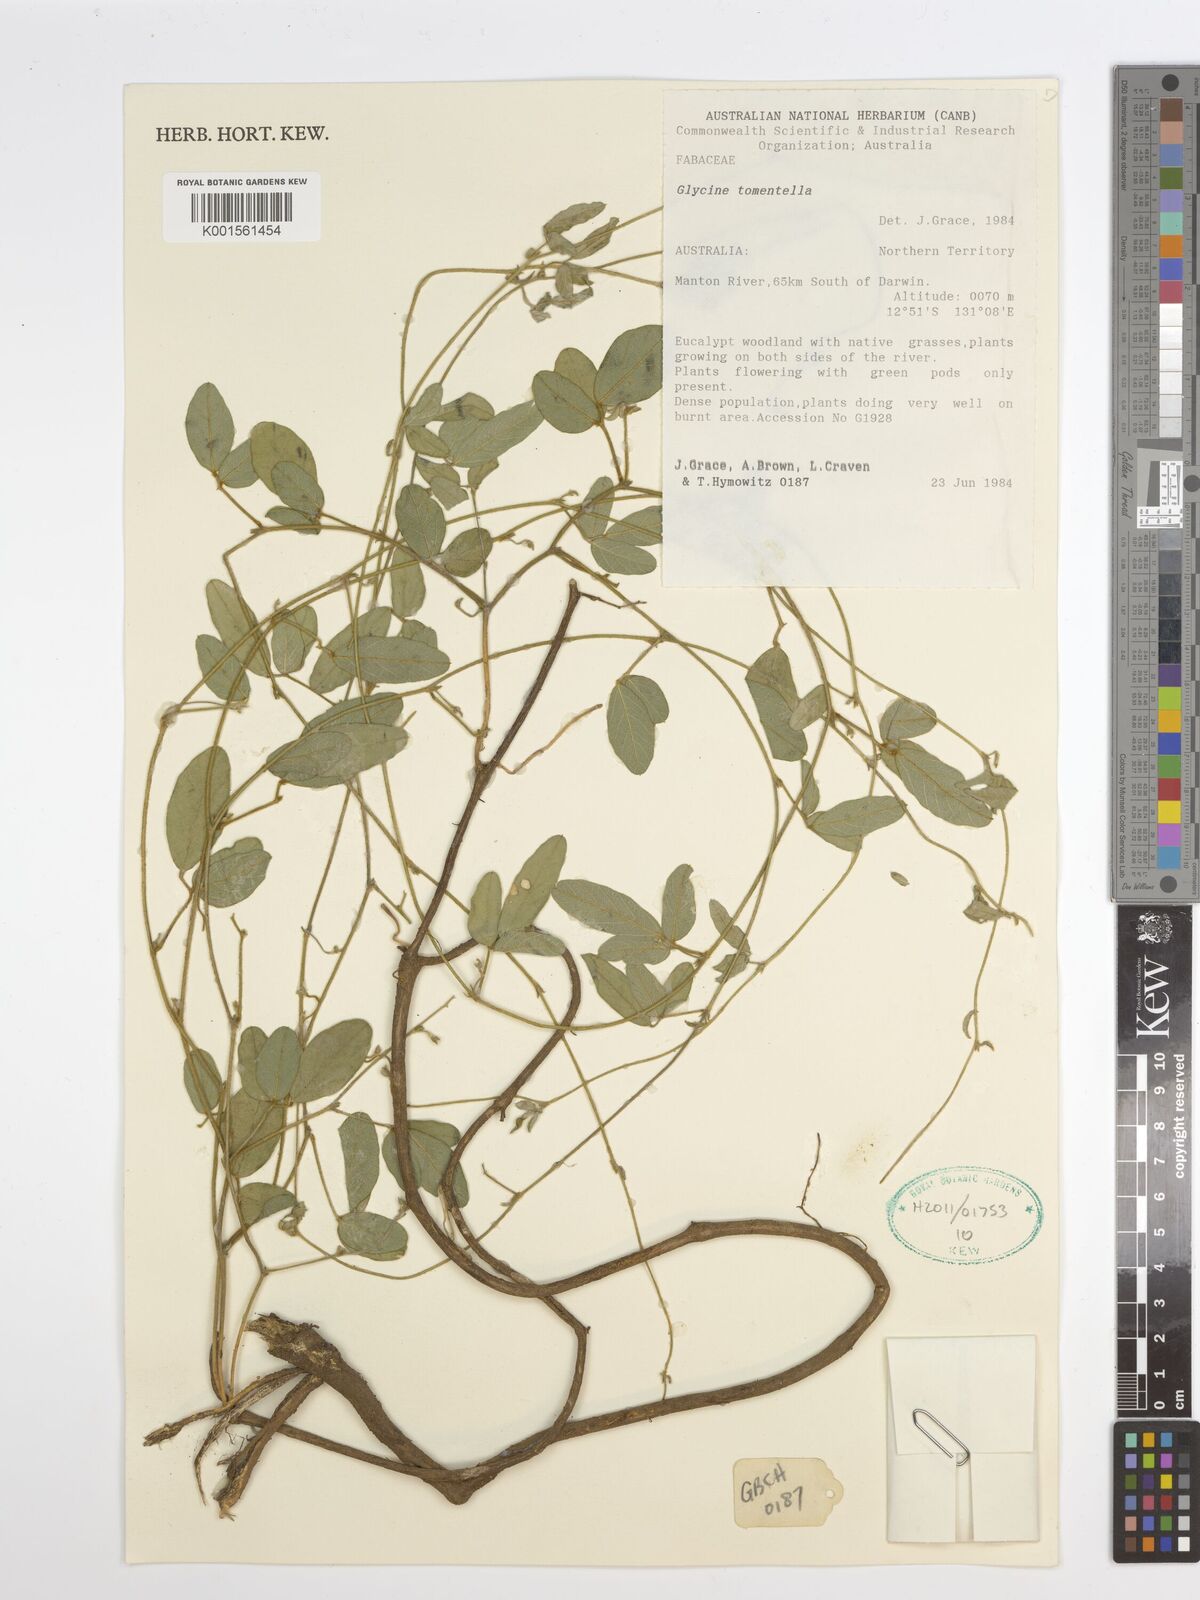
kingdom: Plantae
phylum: Tracheophyta
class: Magnoliopsida
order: Fabales
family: Fabaceae
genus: Glycine
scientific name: Glycine tomentella
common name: Hairy glycine
